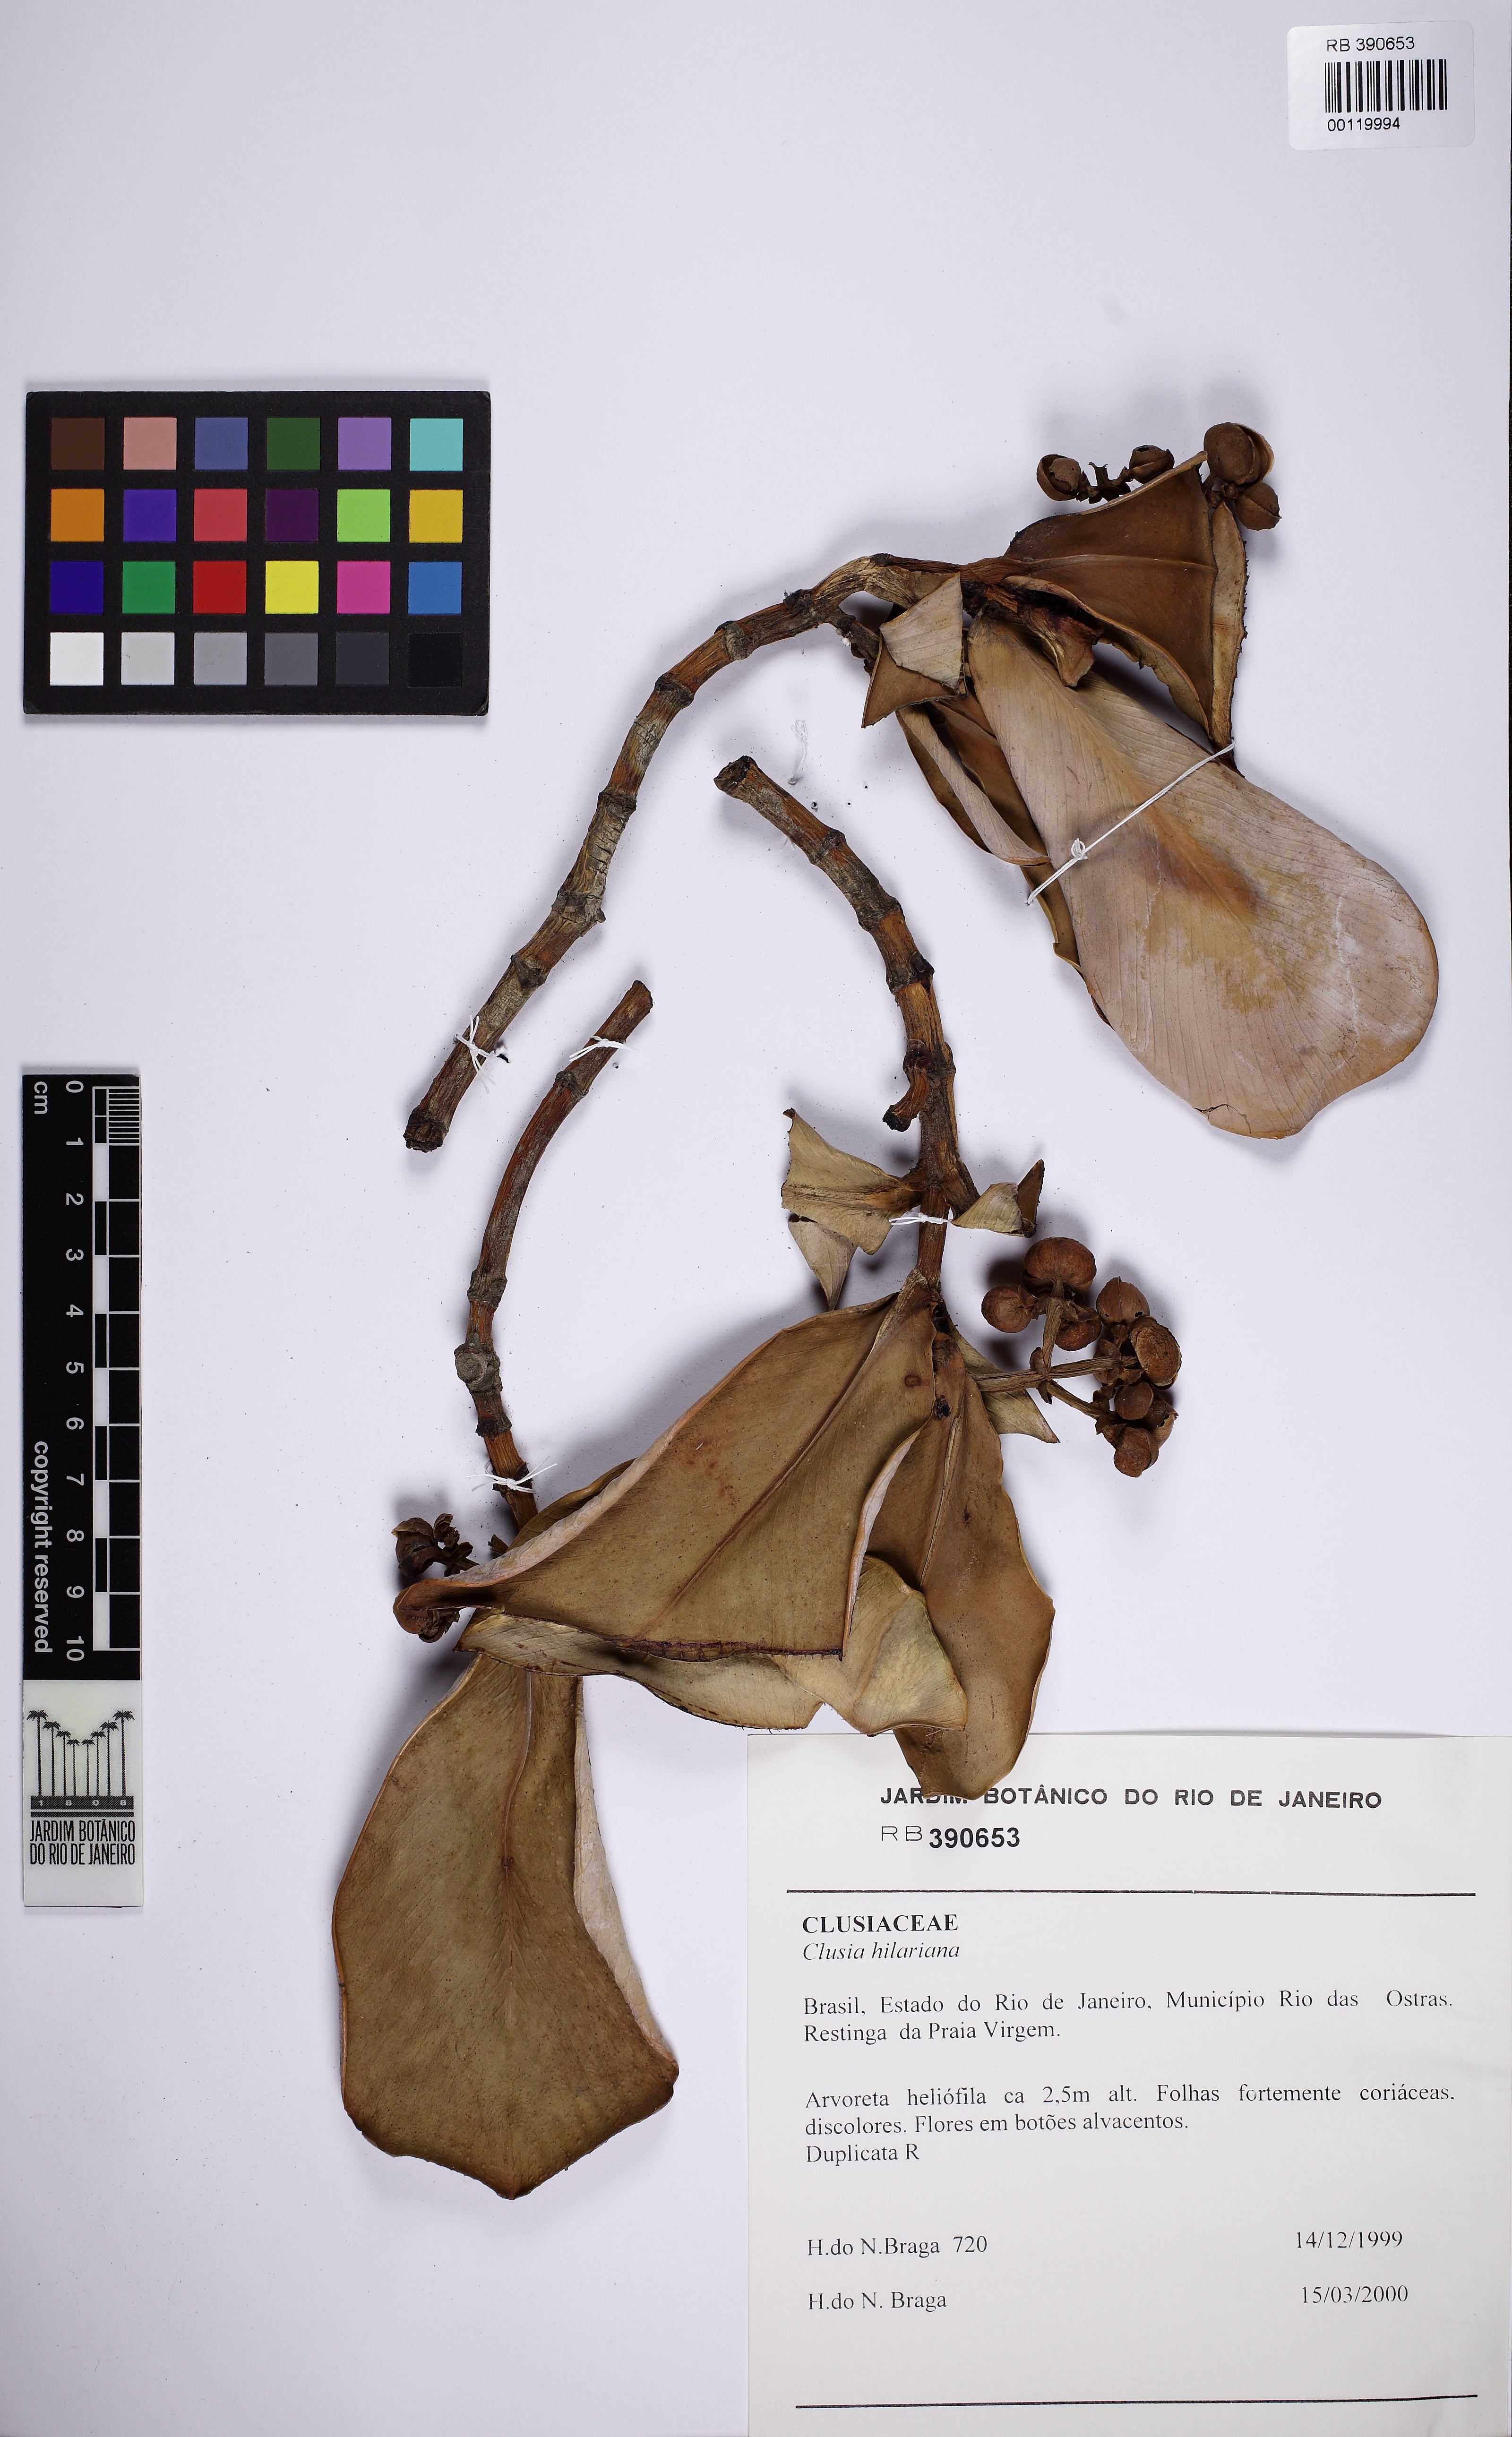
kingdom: Plantae
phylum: Tracheophyta
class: Magnoliopsida
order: Malpighiales
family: Clusiaceae
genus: Clusia
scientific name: Clusia fluminensis
